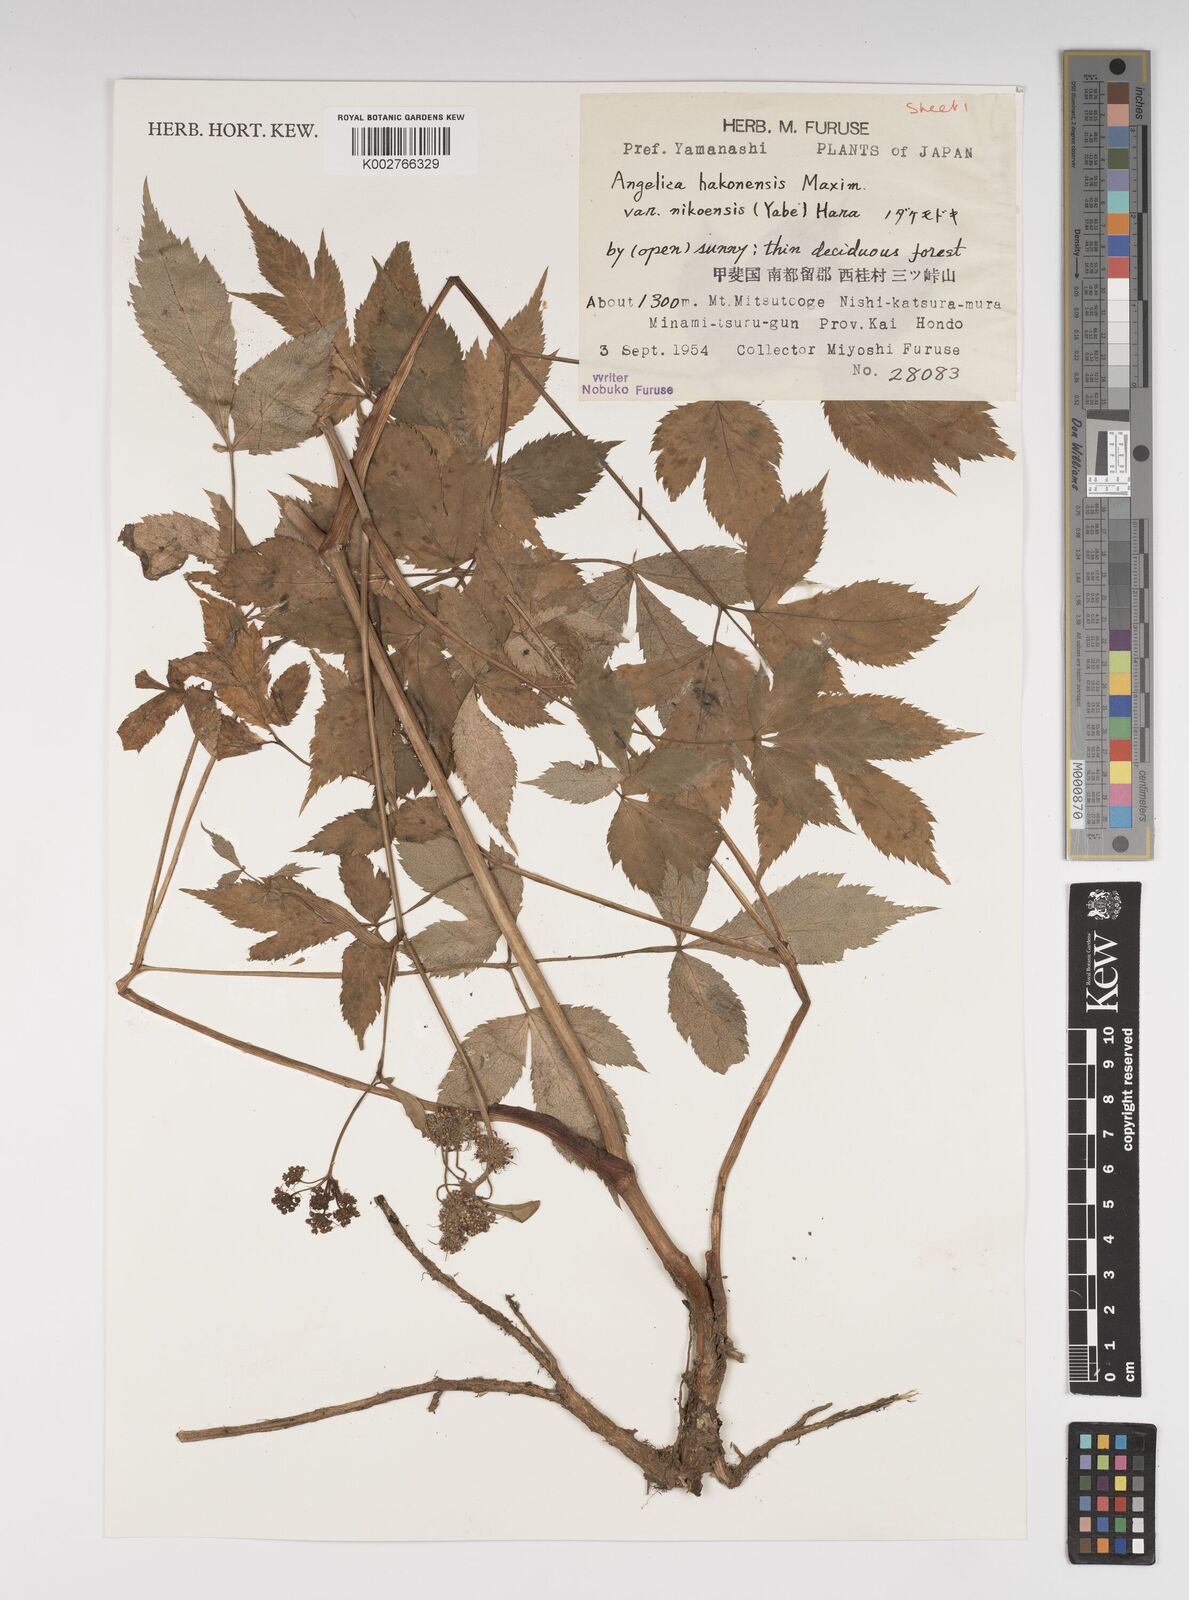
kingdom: Plantae
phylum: Tracheophyta
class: Magnoliopsida
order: Apiales
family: Apiaceae
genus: Angelica
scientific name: Angelica hakonensis
